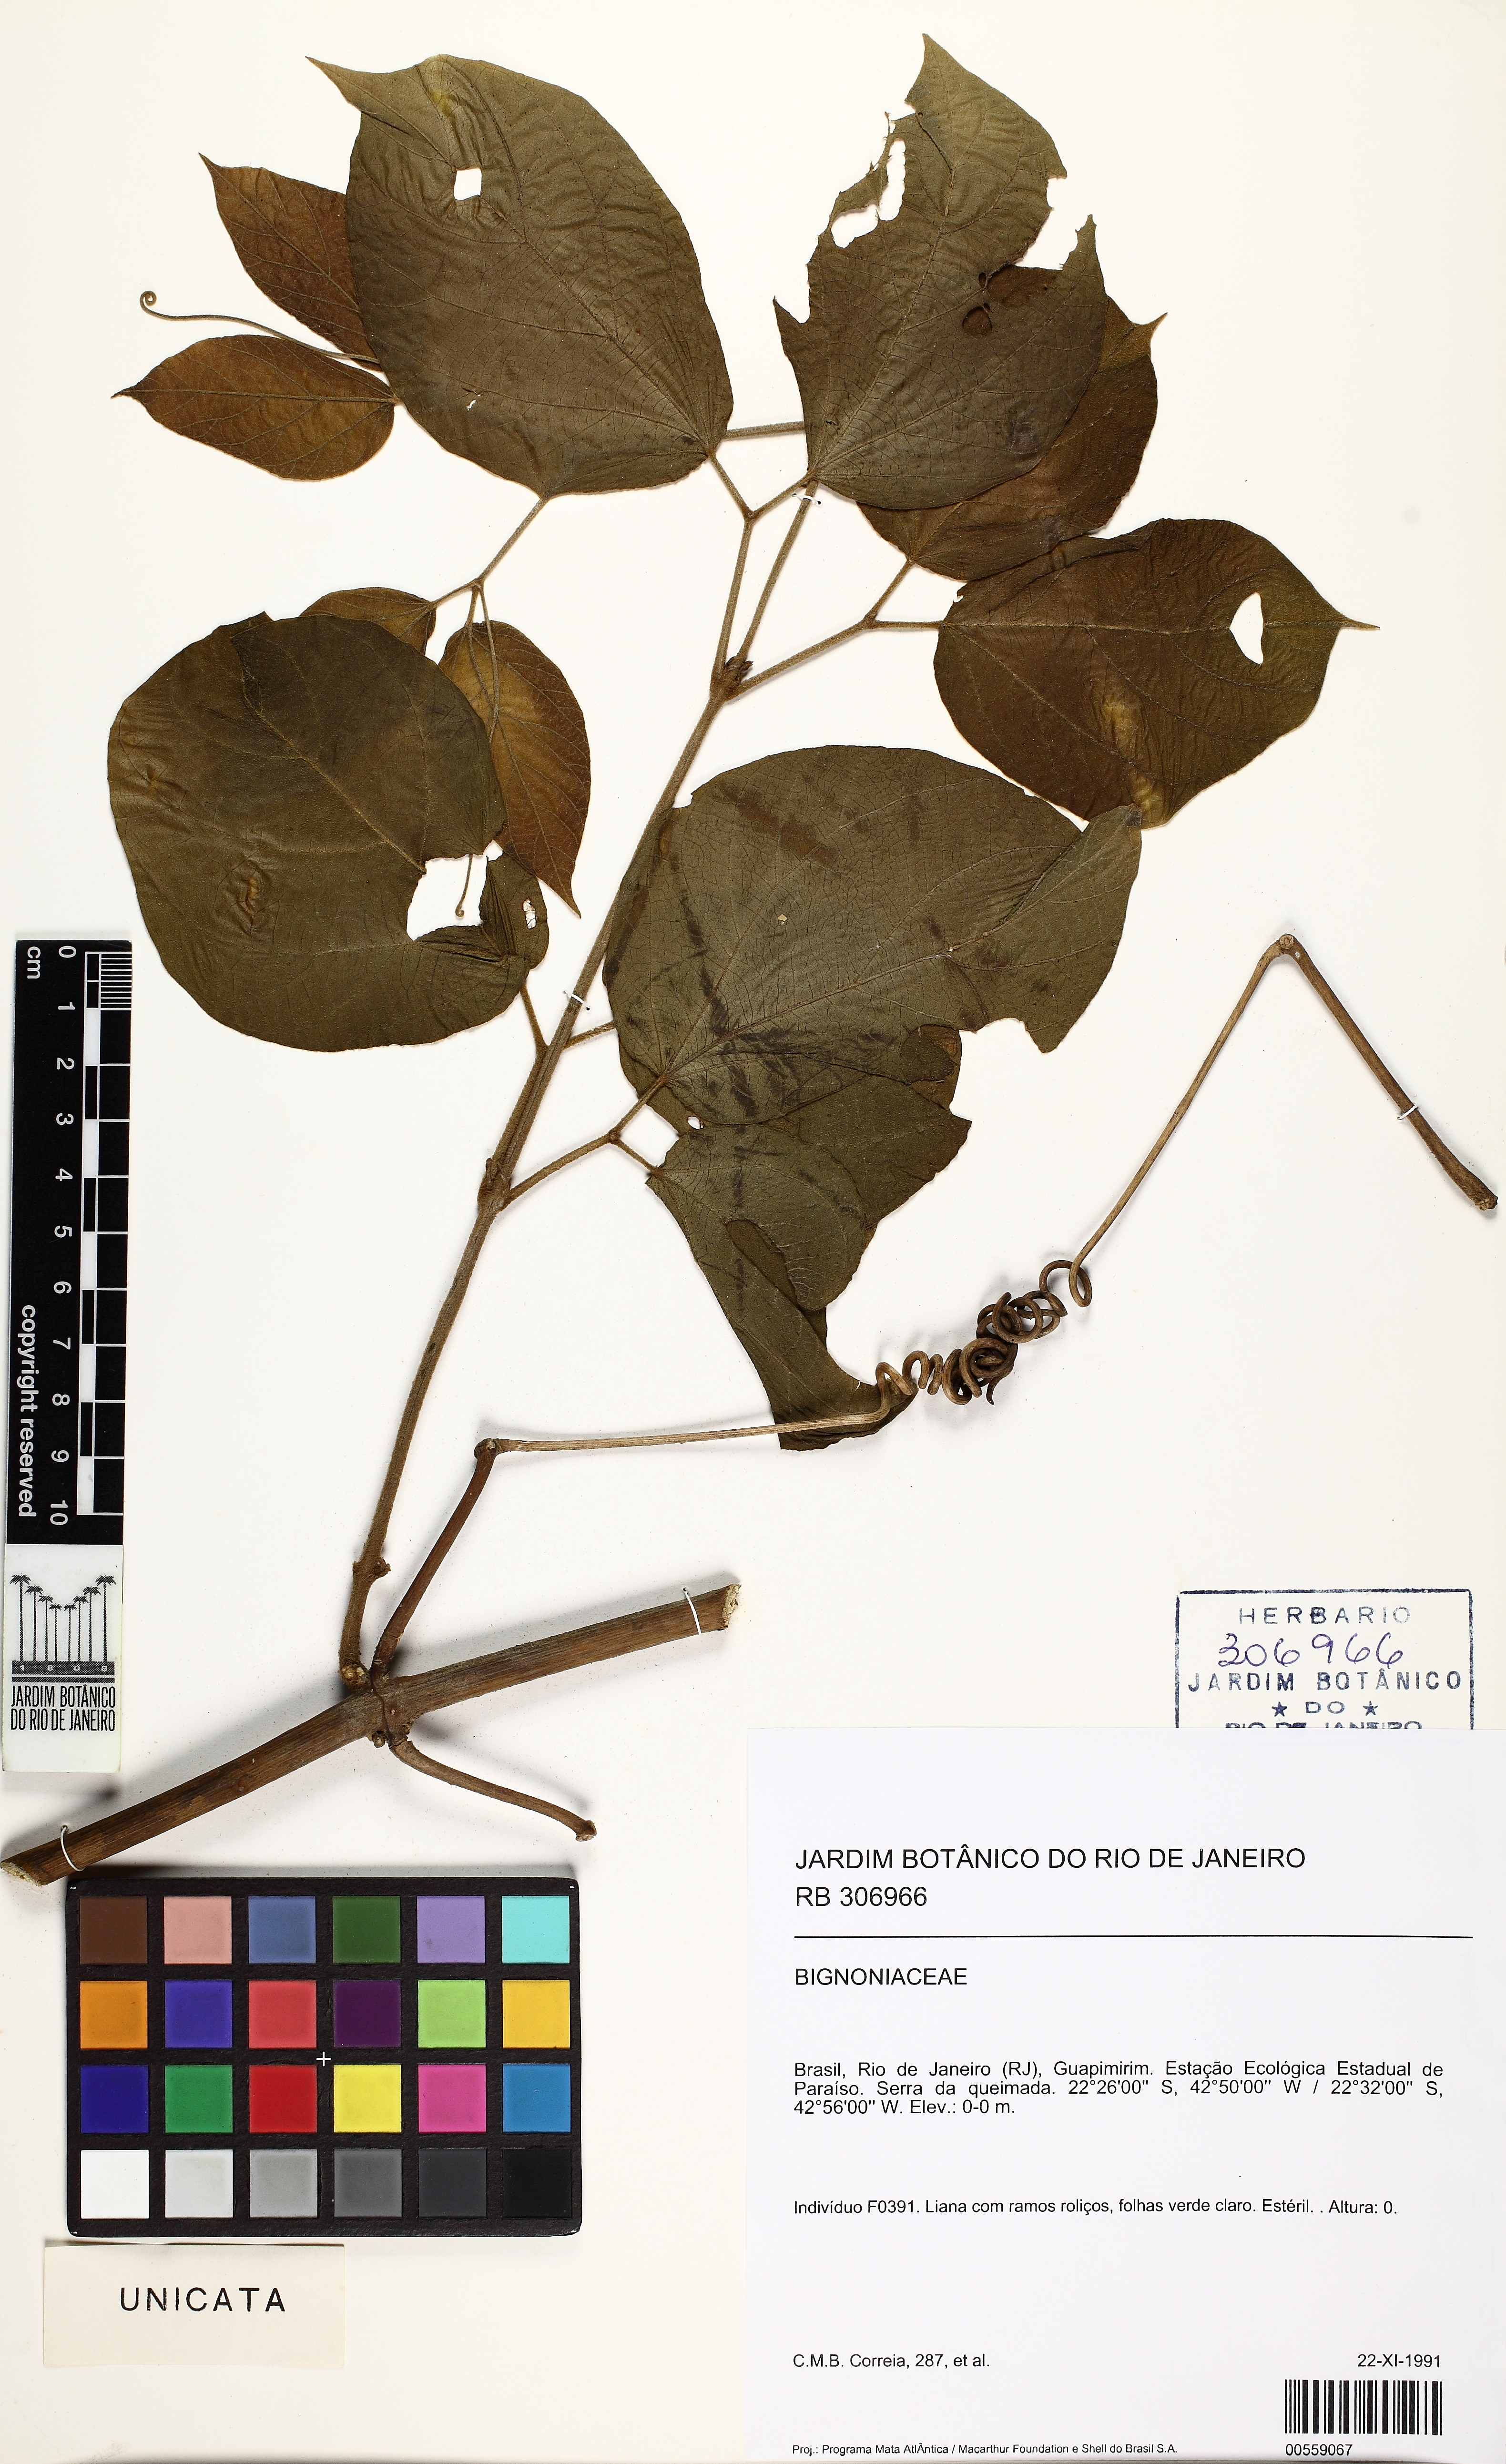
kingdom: Plantae
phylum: Tracheophyta
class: Magnoliopsida
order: Lamiales
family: Bignoniaceae
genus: Stizophyllum
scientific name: Stizophyllum
